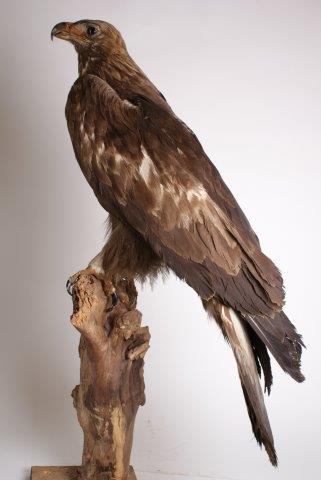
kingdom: Animalia
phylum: Chordata
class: Aves
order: Accipitriformes
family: Accipitridae
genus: Aquila
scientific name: Aquila chrysaetos
